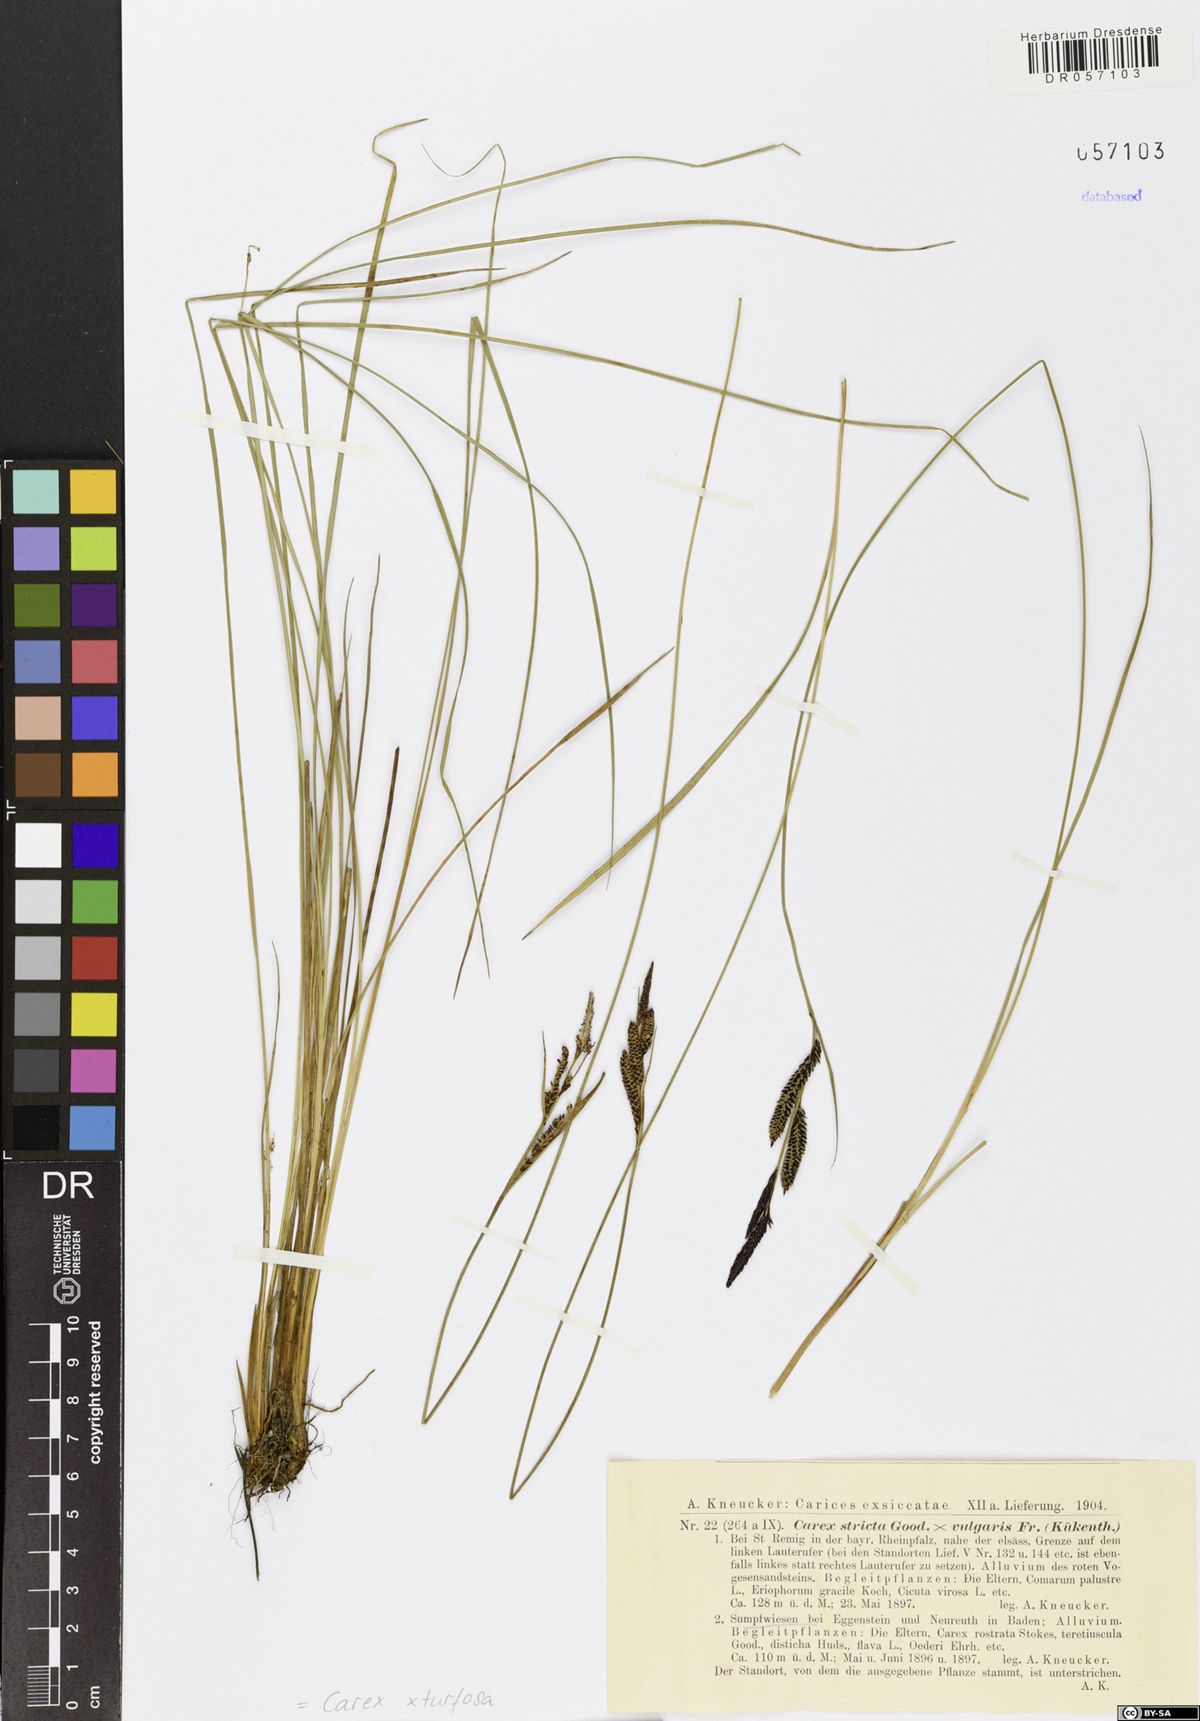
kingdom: Plantae
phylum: Tracheophyta
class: Liliopsida
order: Poales
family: Cyperaceae
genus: Carex
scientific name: Carex turfosa
